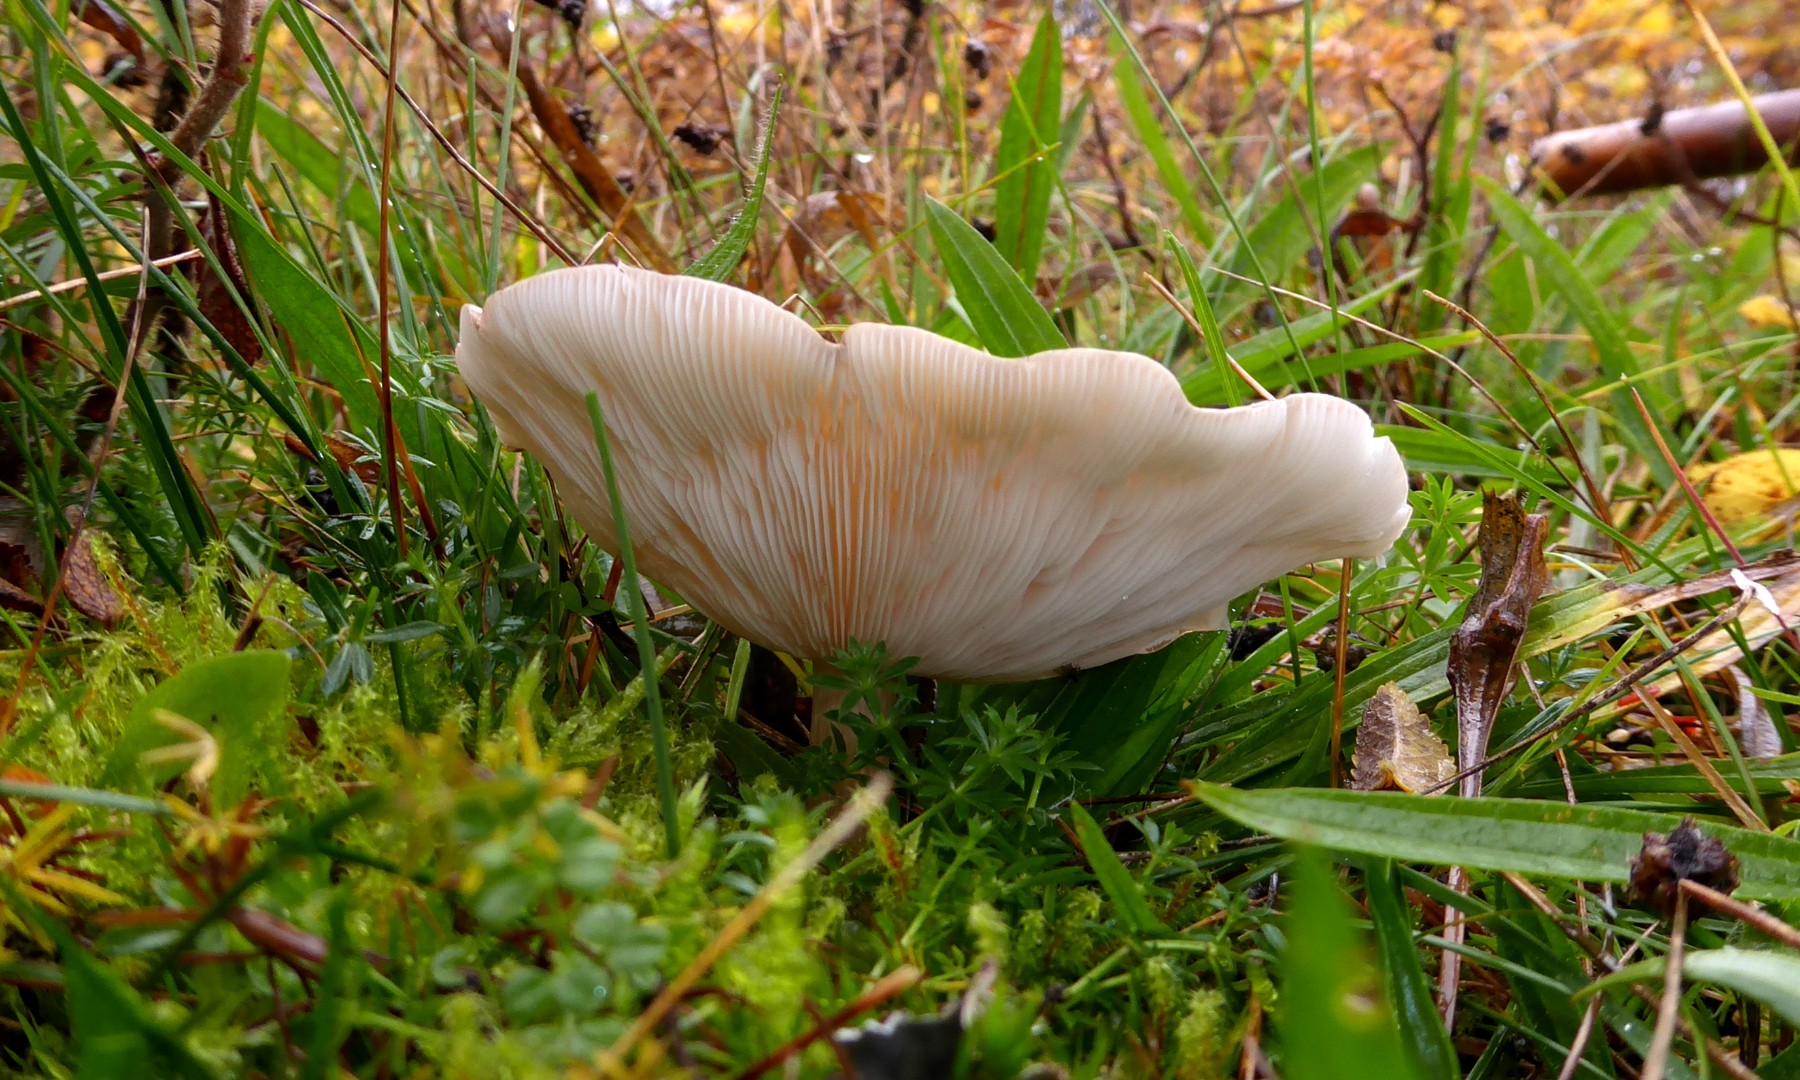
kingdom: Fungi
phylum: Basidiomycota
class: Agaricomycetes
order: Agaricales
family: Tricholomataceae
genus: Melanoleuca
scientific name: Melanoleuca grammopodia
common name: stribestokket munkehat
